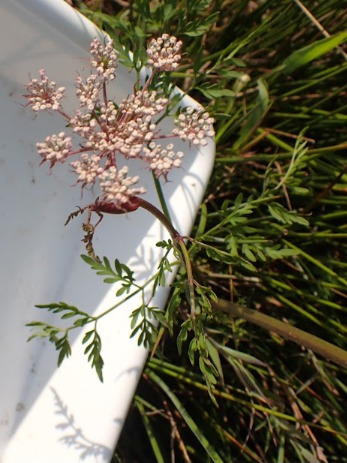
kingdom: Plantae
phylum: Tracheophyta
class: Magnoliopsida
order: Apiales
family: Apiaceae
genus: Thysselinum
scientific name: Thysselinum palustre
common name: Kær-svovlrod
